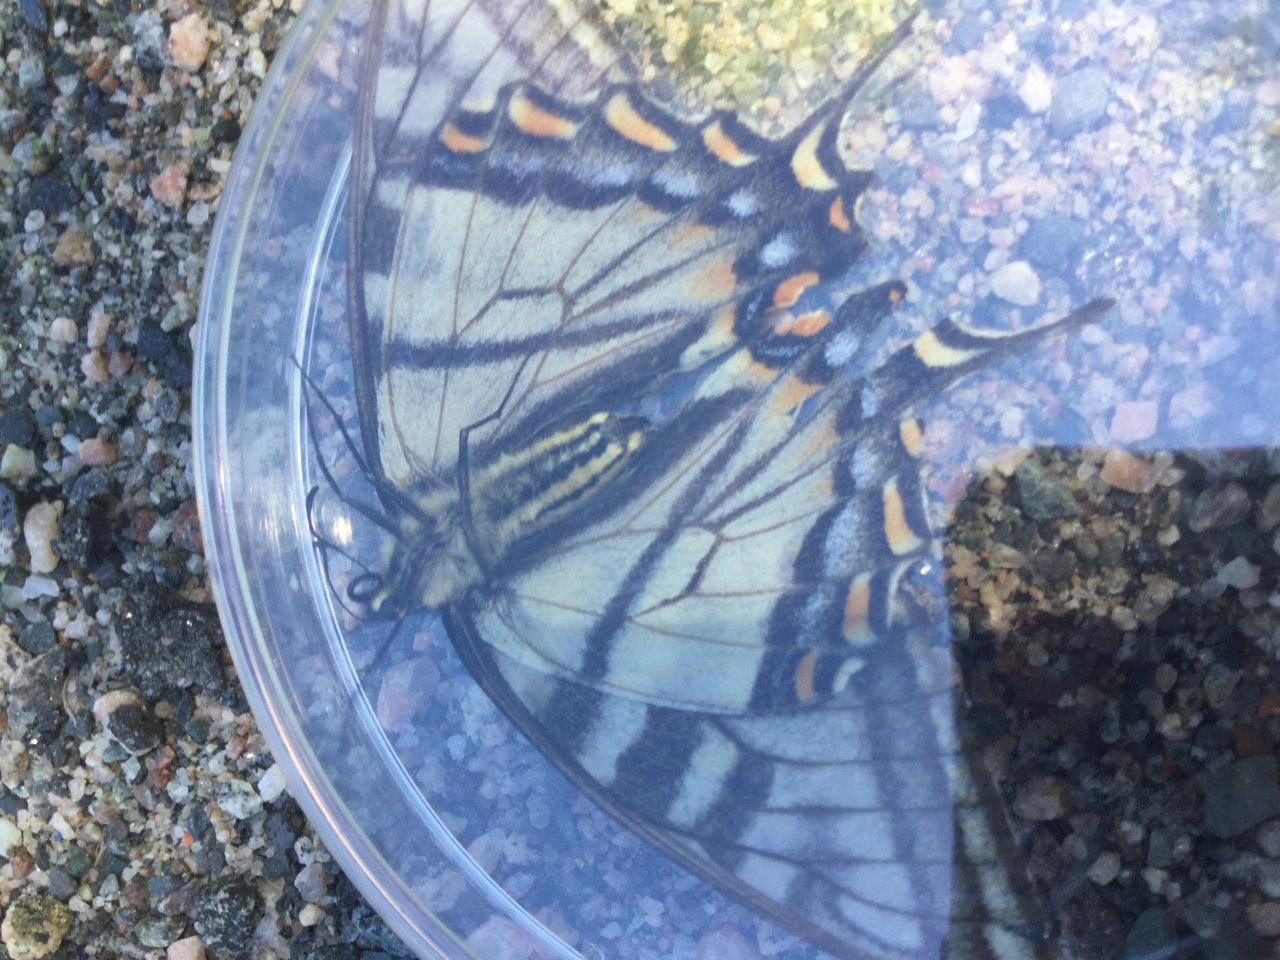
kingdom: Animalia
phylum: Arthropoda
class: Insecta
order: Lepidoptera
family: Papilionidae
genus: Pterourus
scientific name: Pterourus canadensis
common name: Canadian Tiger Swallowtail
